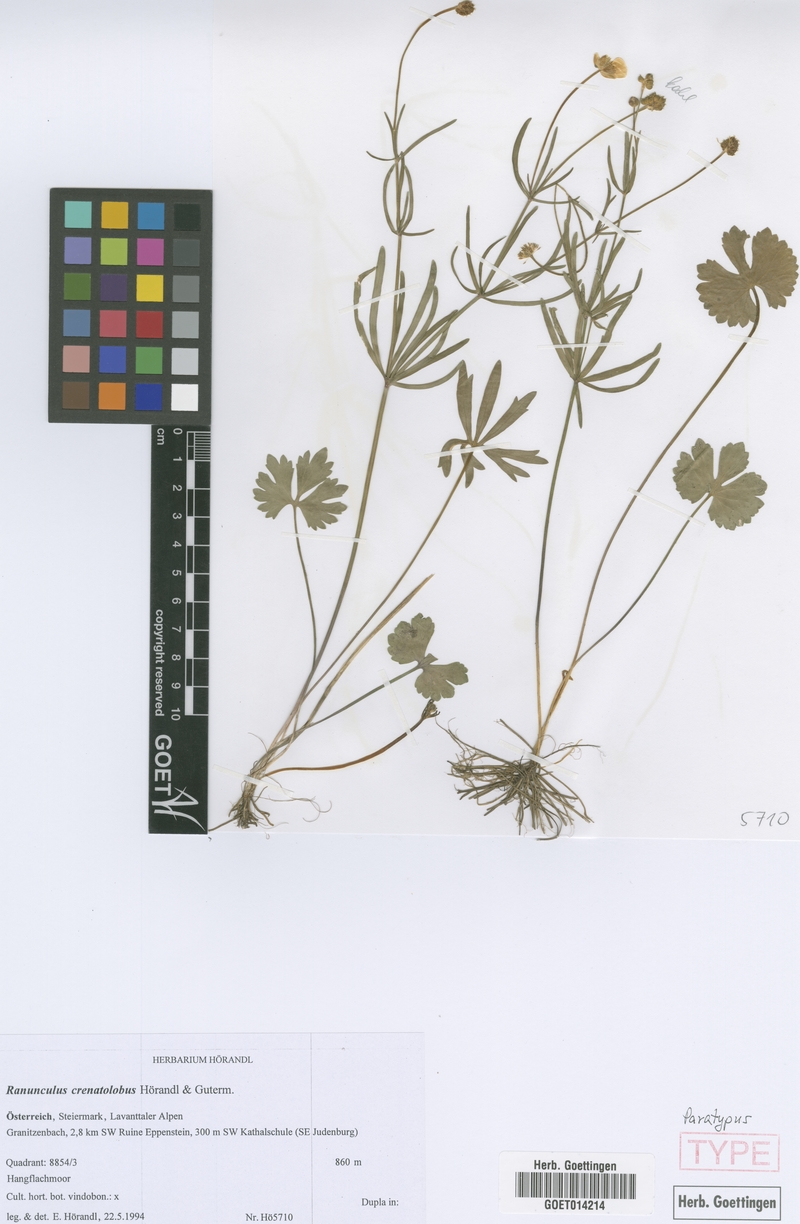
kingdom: Plantae
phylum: Tracheophyta
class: Magnoliopsida
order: Ranunculales
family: Ranunculaceae
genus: Ranunculus
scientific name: Ranunculus crenatolobus
